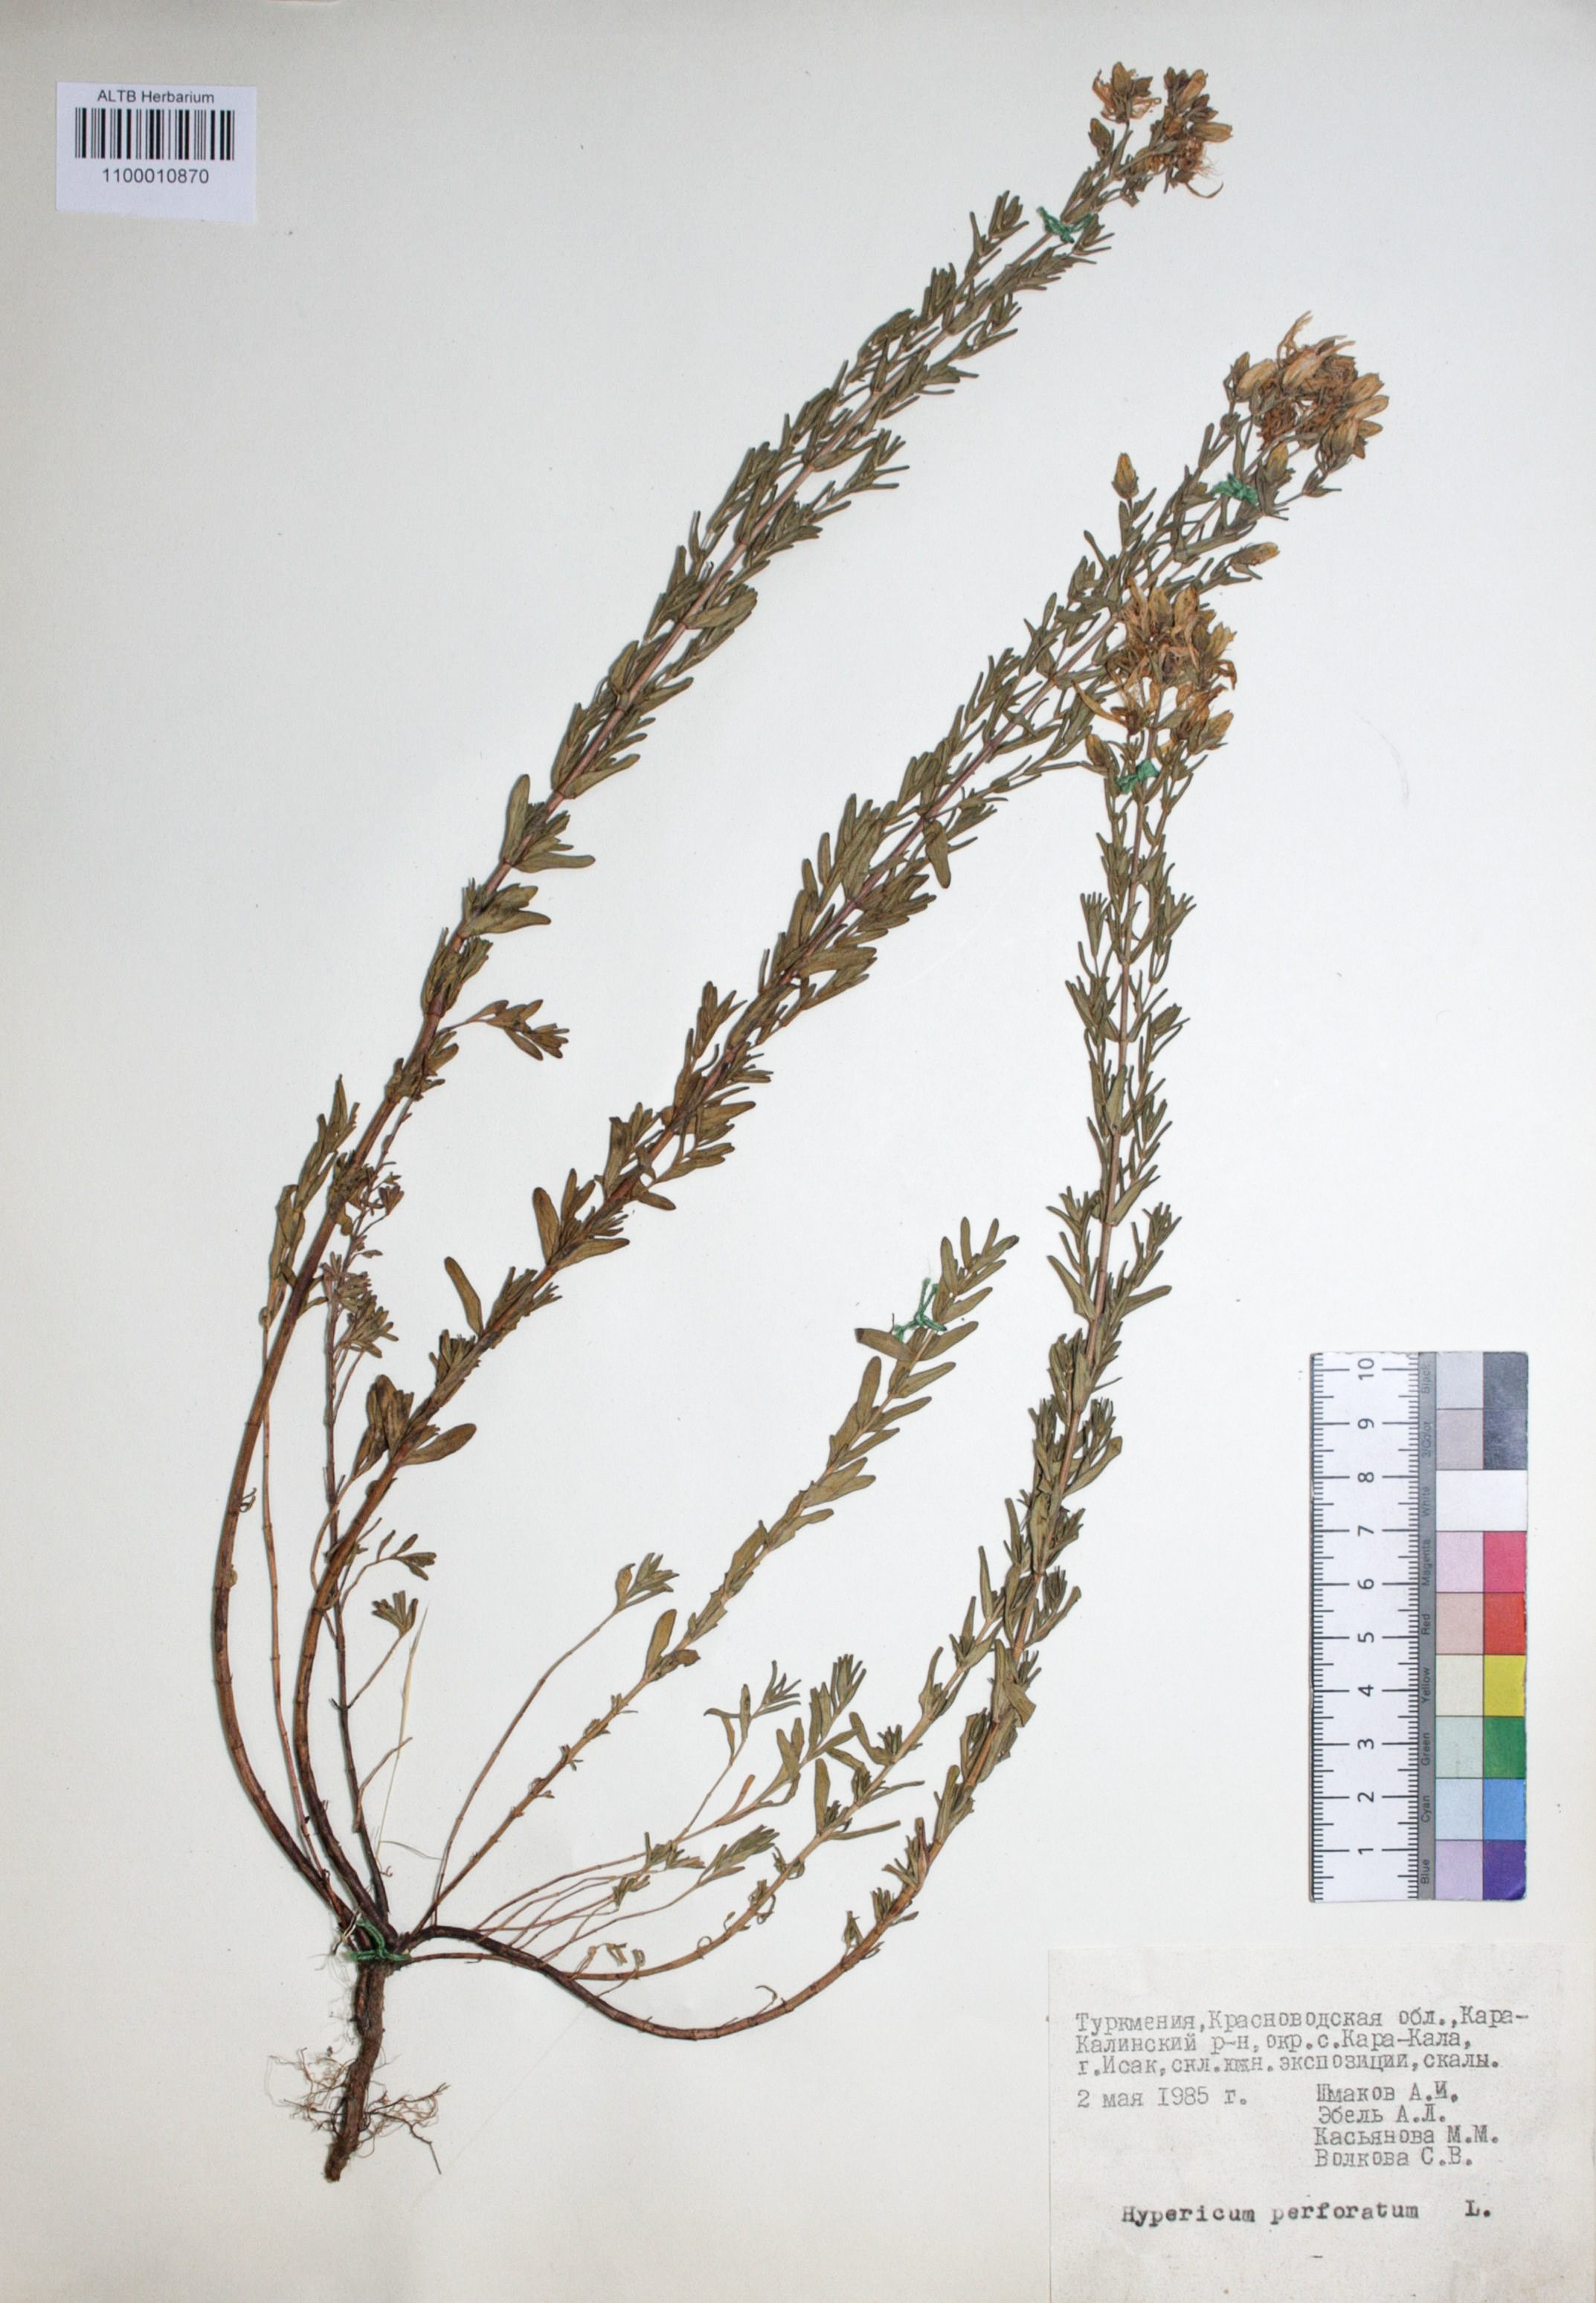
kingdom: Plantae
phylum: Tracheophyta
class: Magnoliopsida
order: Malpighiales
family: Hypericaceae
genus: Hypericum
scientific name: Hypericum perforatum
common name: Common st. johnswort
